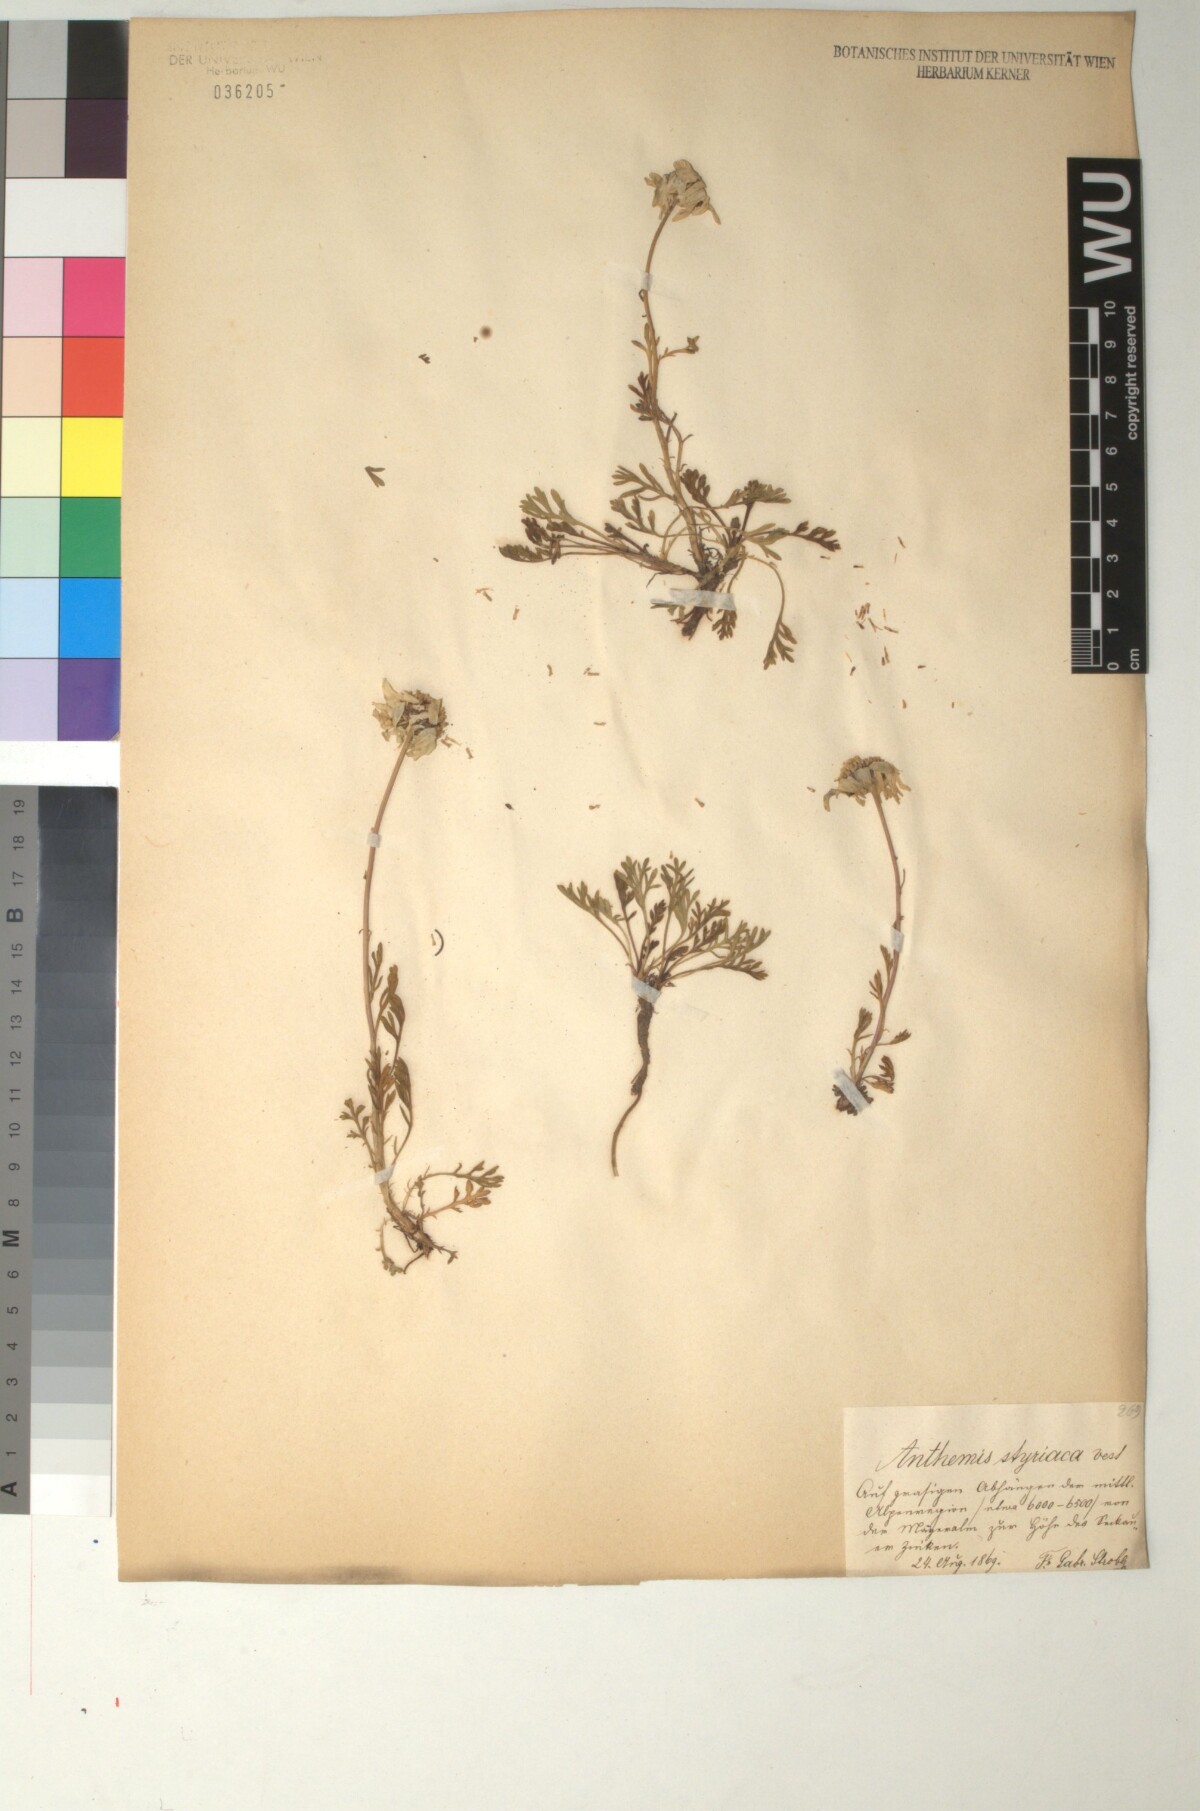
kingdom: Plantae
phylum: Tracheophyta
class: Magnoliopsida
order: Asterales
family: Asteraceae
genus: Anthemis
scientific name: Anthemis cretica
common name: Mountain dog-daisy
